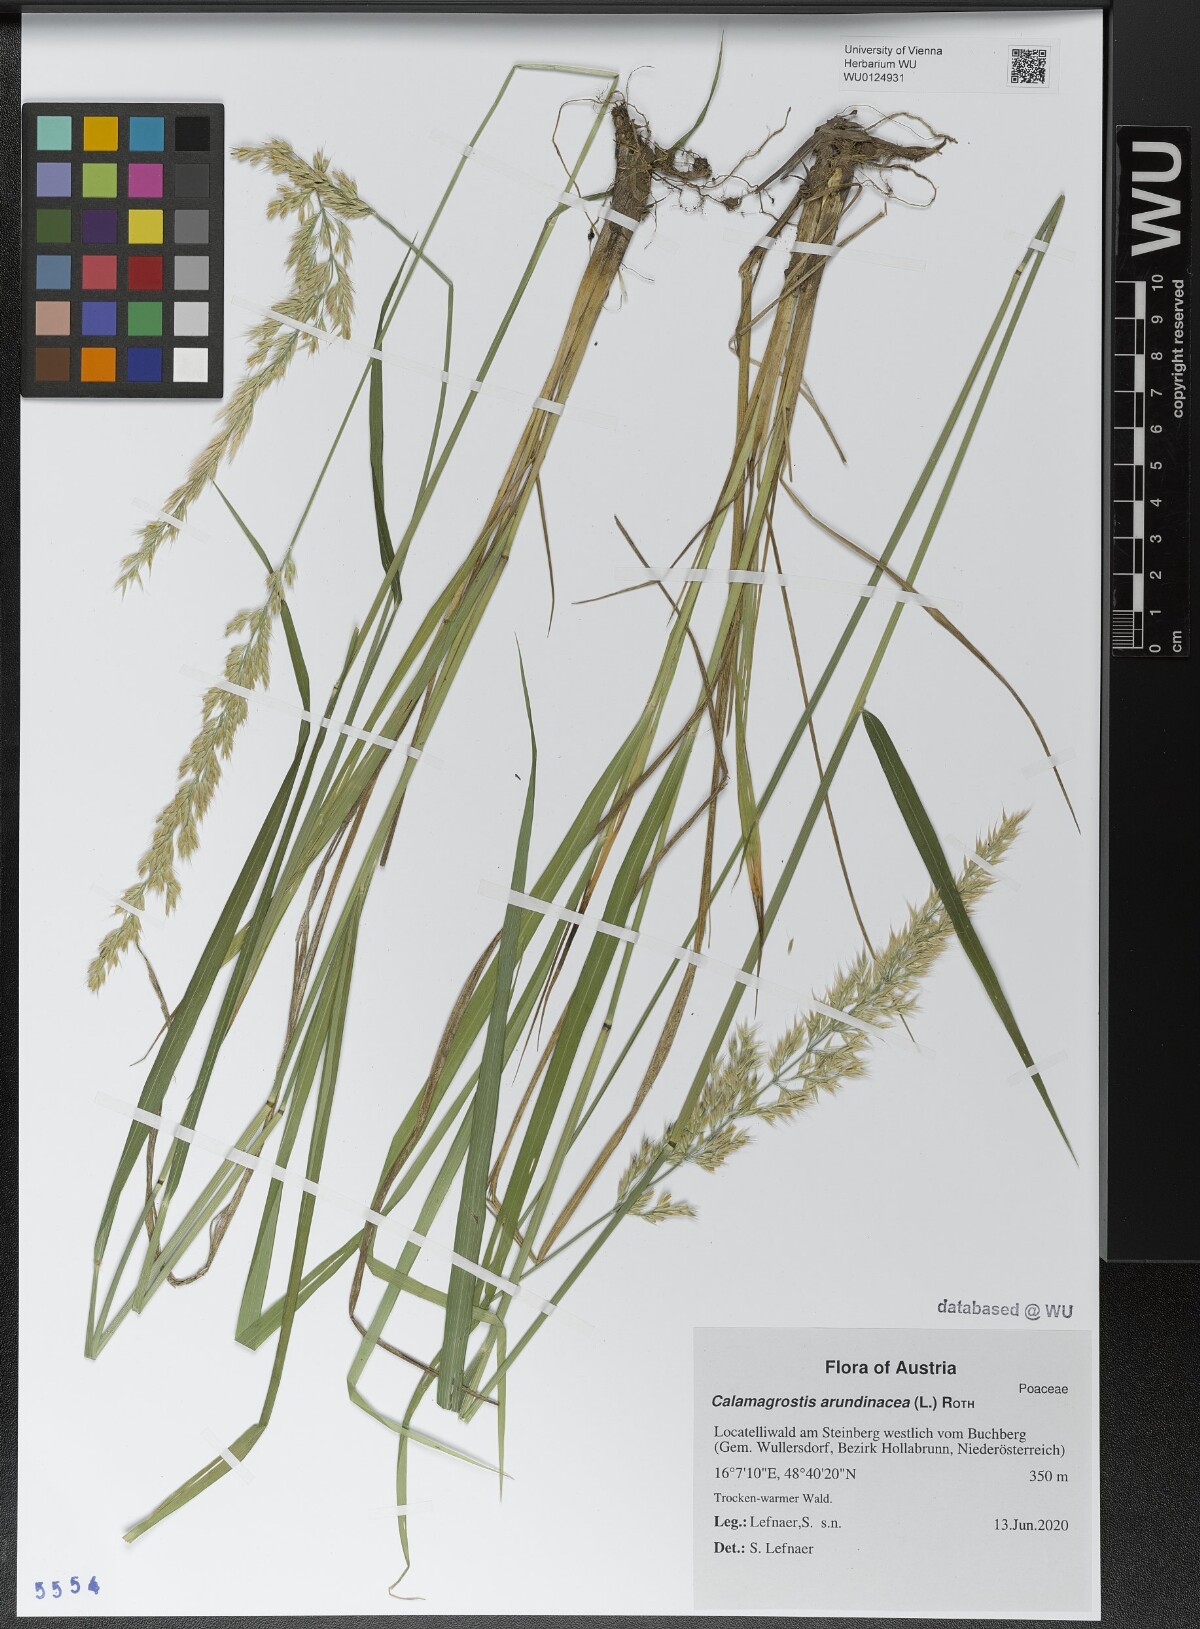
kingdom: Plantae
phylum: Tracheophyta
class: Liliopsida
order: Poales
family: Poaceae
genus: Calamagrostis
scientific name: Calamagrostis arundinacea
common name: Metskastik
